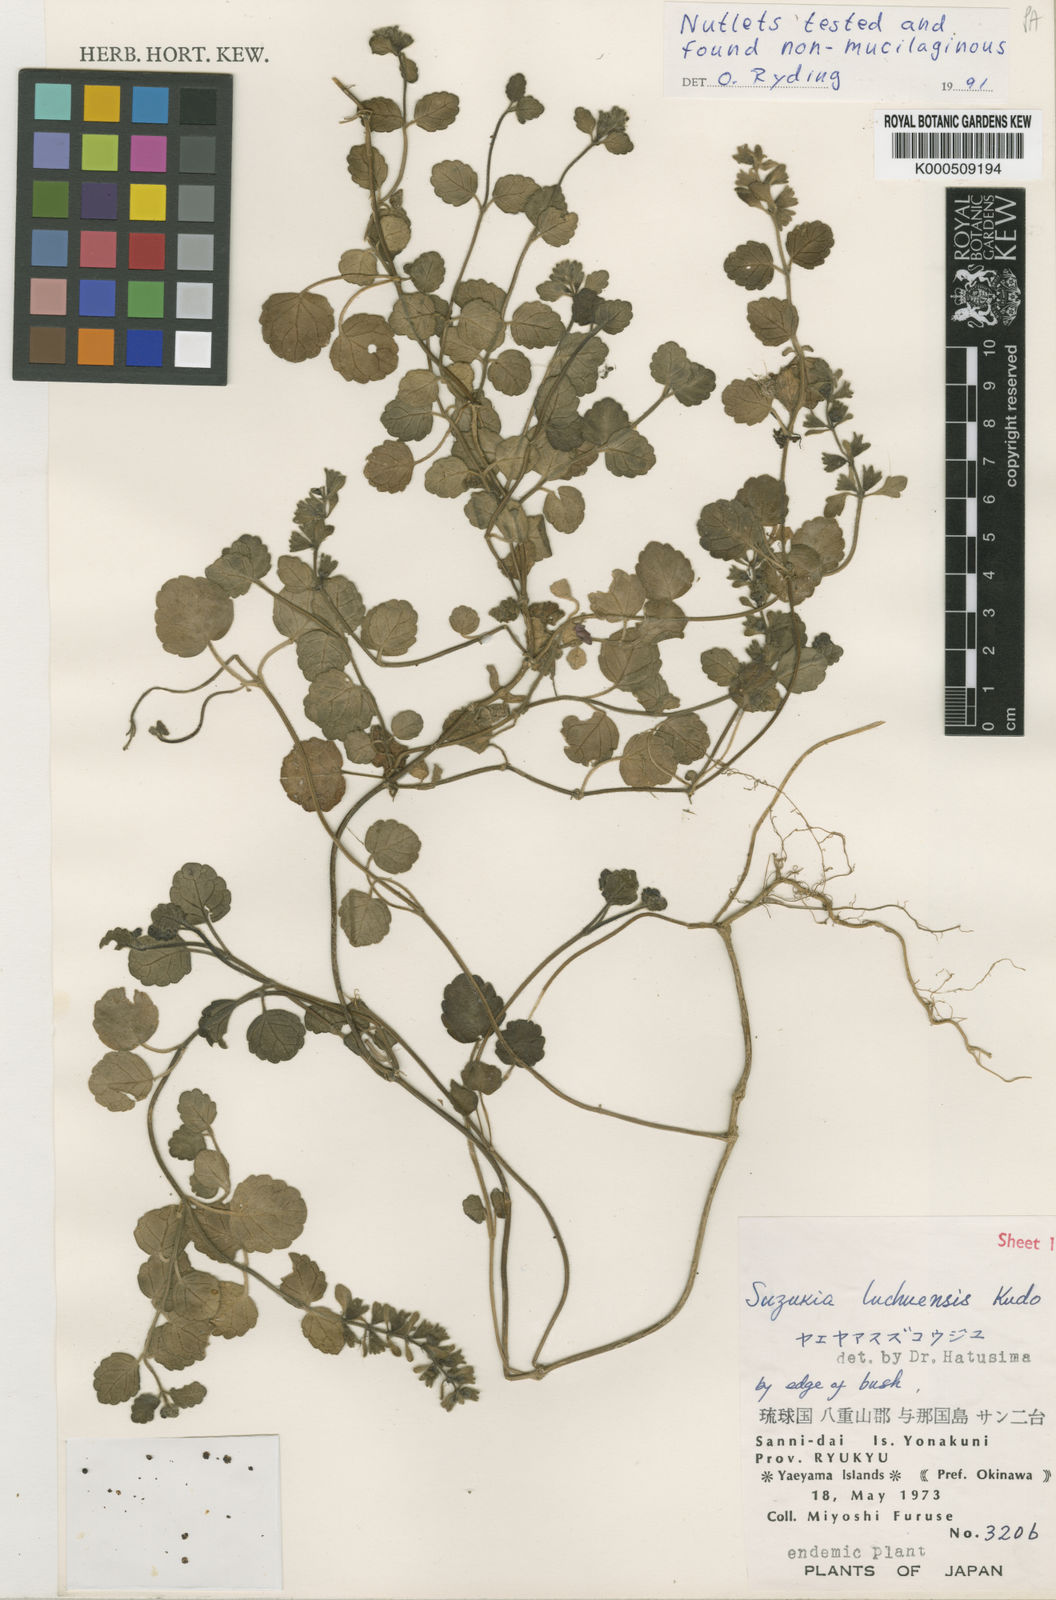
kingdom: Plantae
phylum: Tracheophyta
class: Magnoliopsida
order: Lamiales
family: Lamiaceae
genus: Suzukia
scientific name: Suzukia luchuensis
